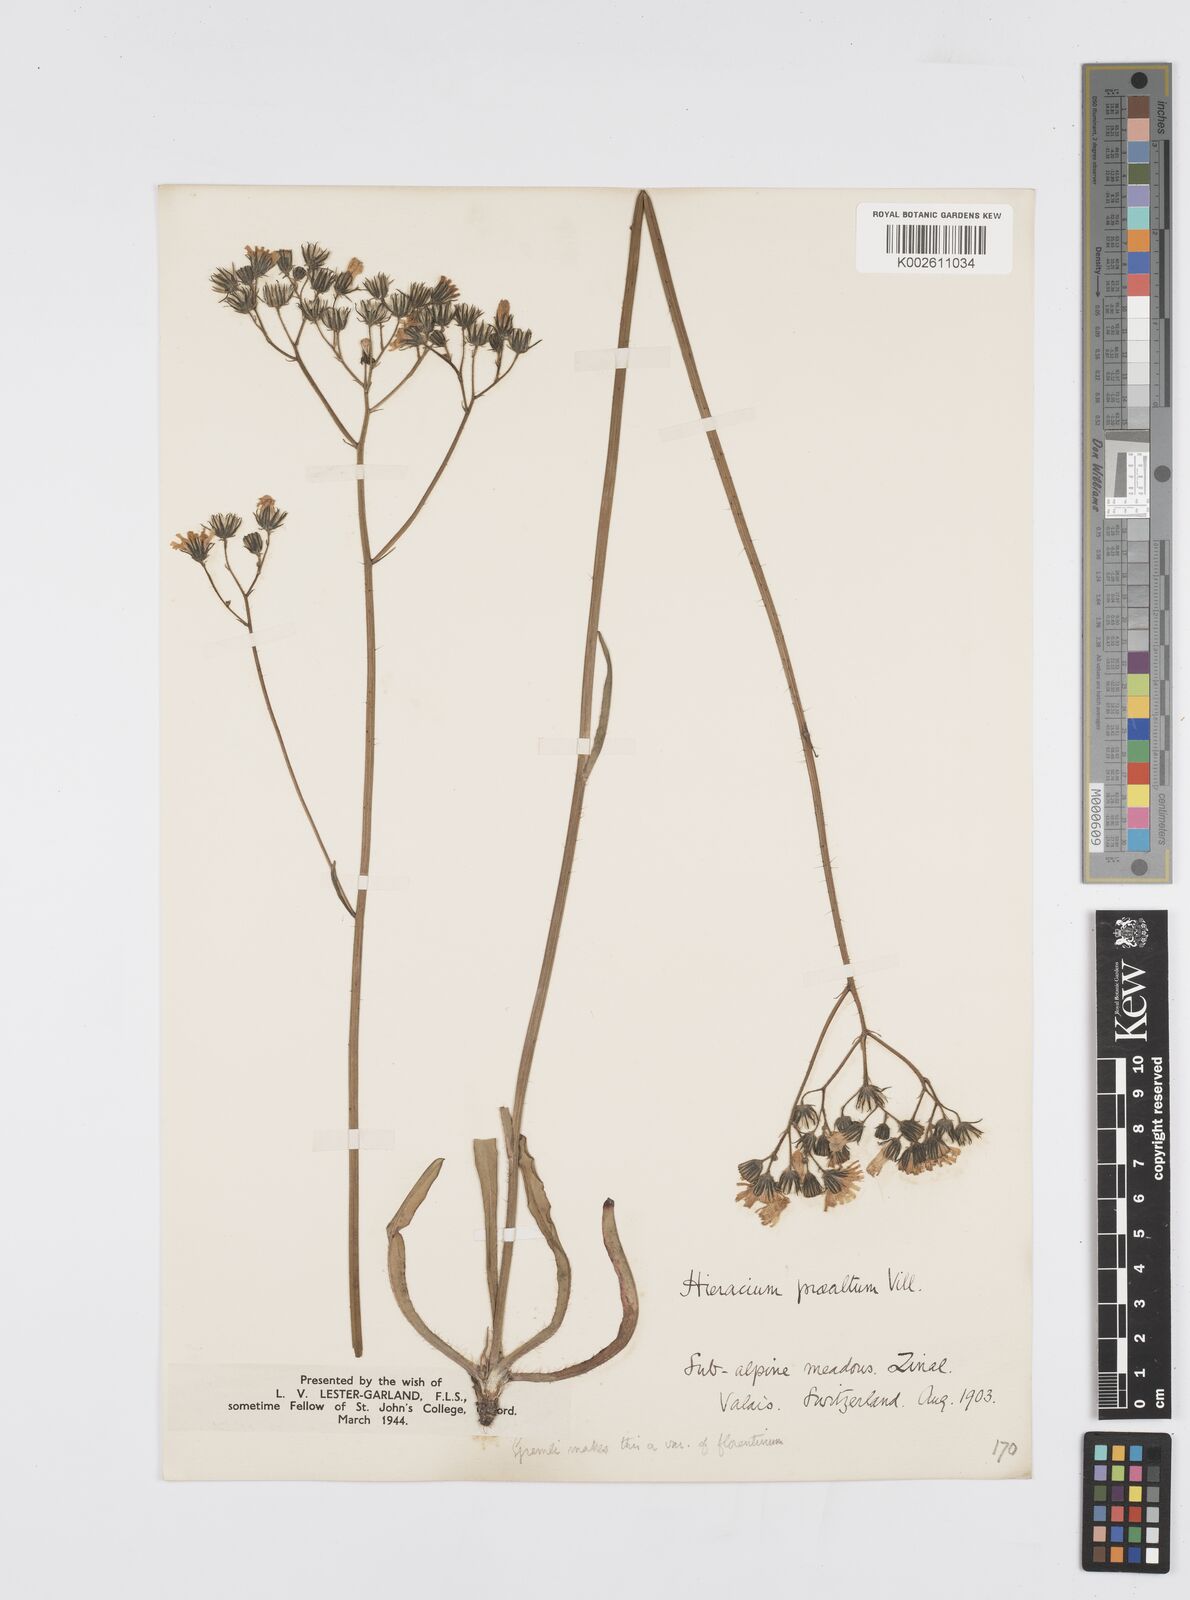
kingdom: Plantae
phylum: Tracheophyta
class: Magnoliopsida
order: Asterales
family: Asteraceae
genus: Pilosella
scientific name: Pilosella piloselloides
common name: Glaucous king-devil
